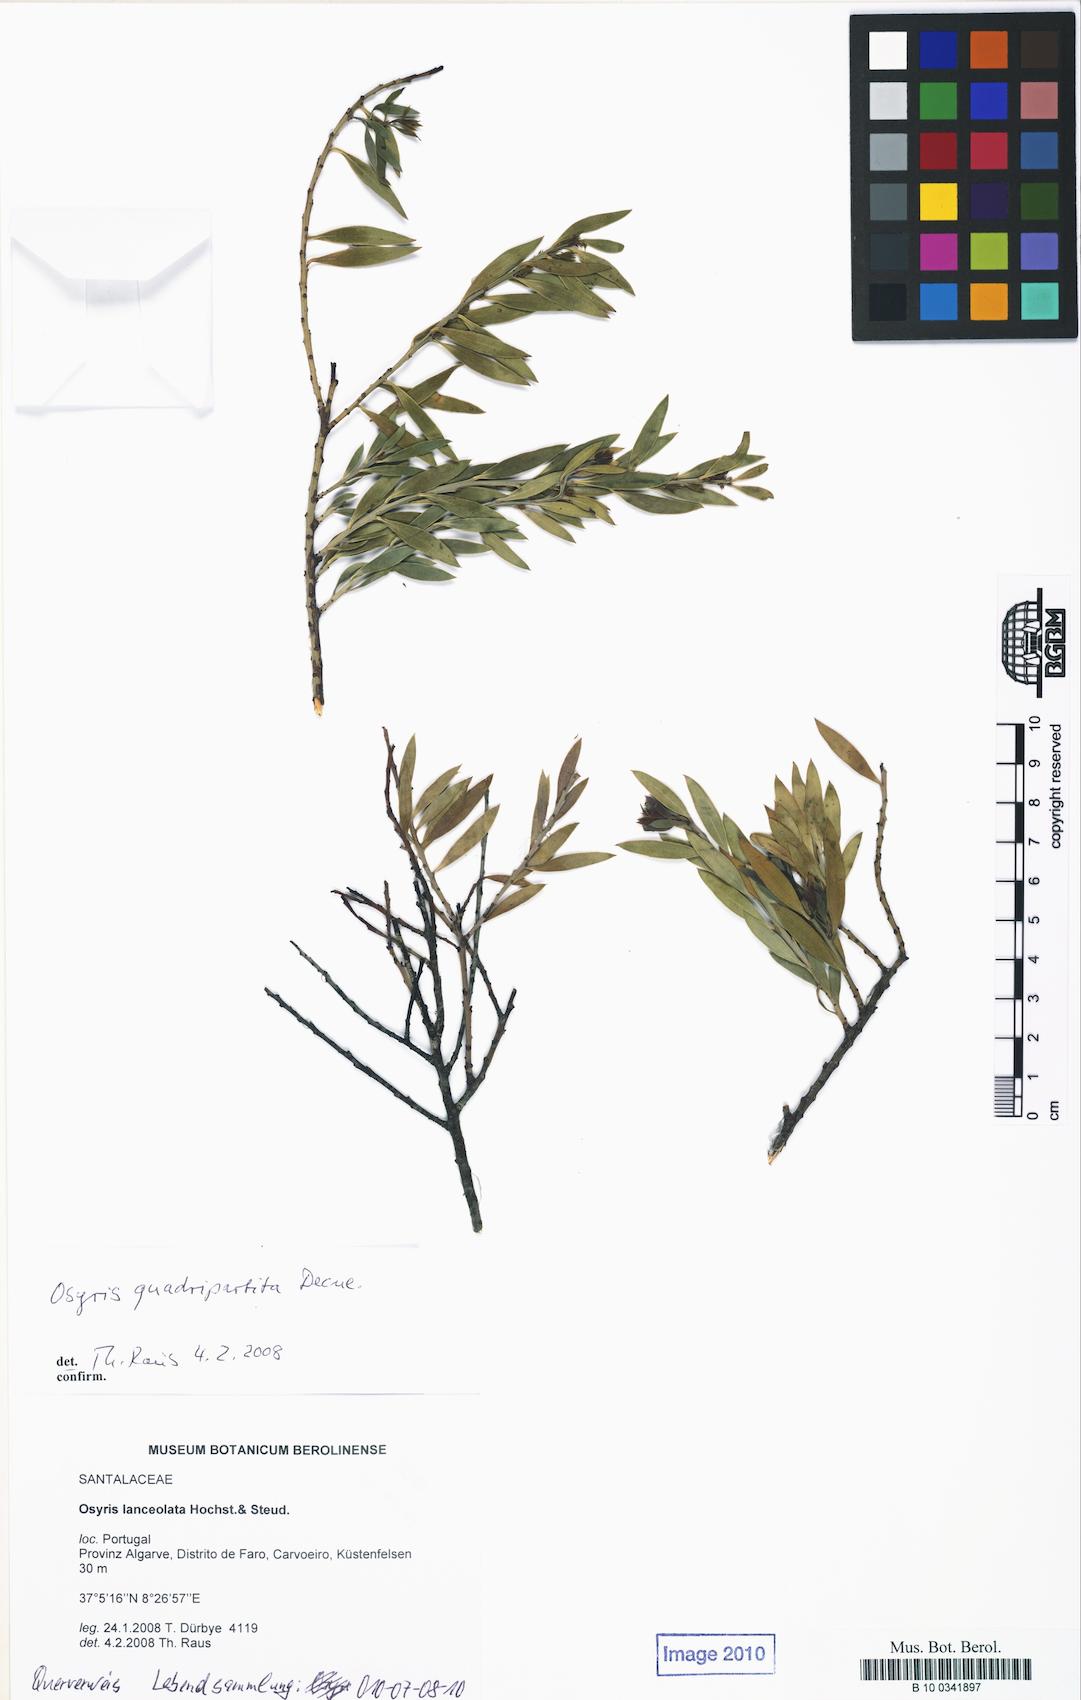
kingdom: Plantae
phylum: Tracheophyta
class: Magnoliopsida
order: Santalales
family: Santalaceae
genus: Osyris
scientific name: Osyris lanceolata
